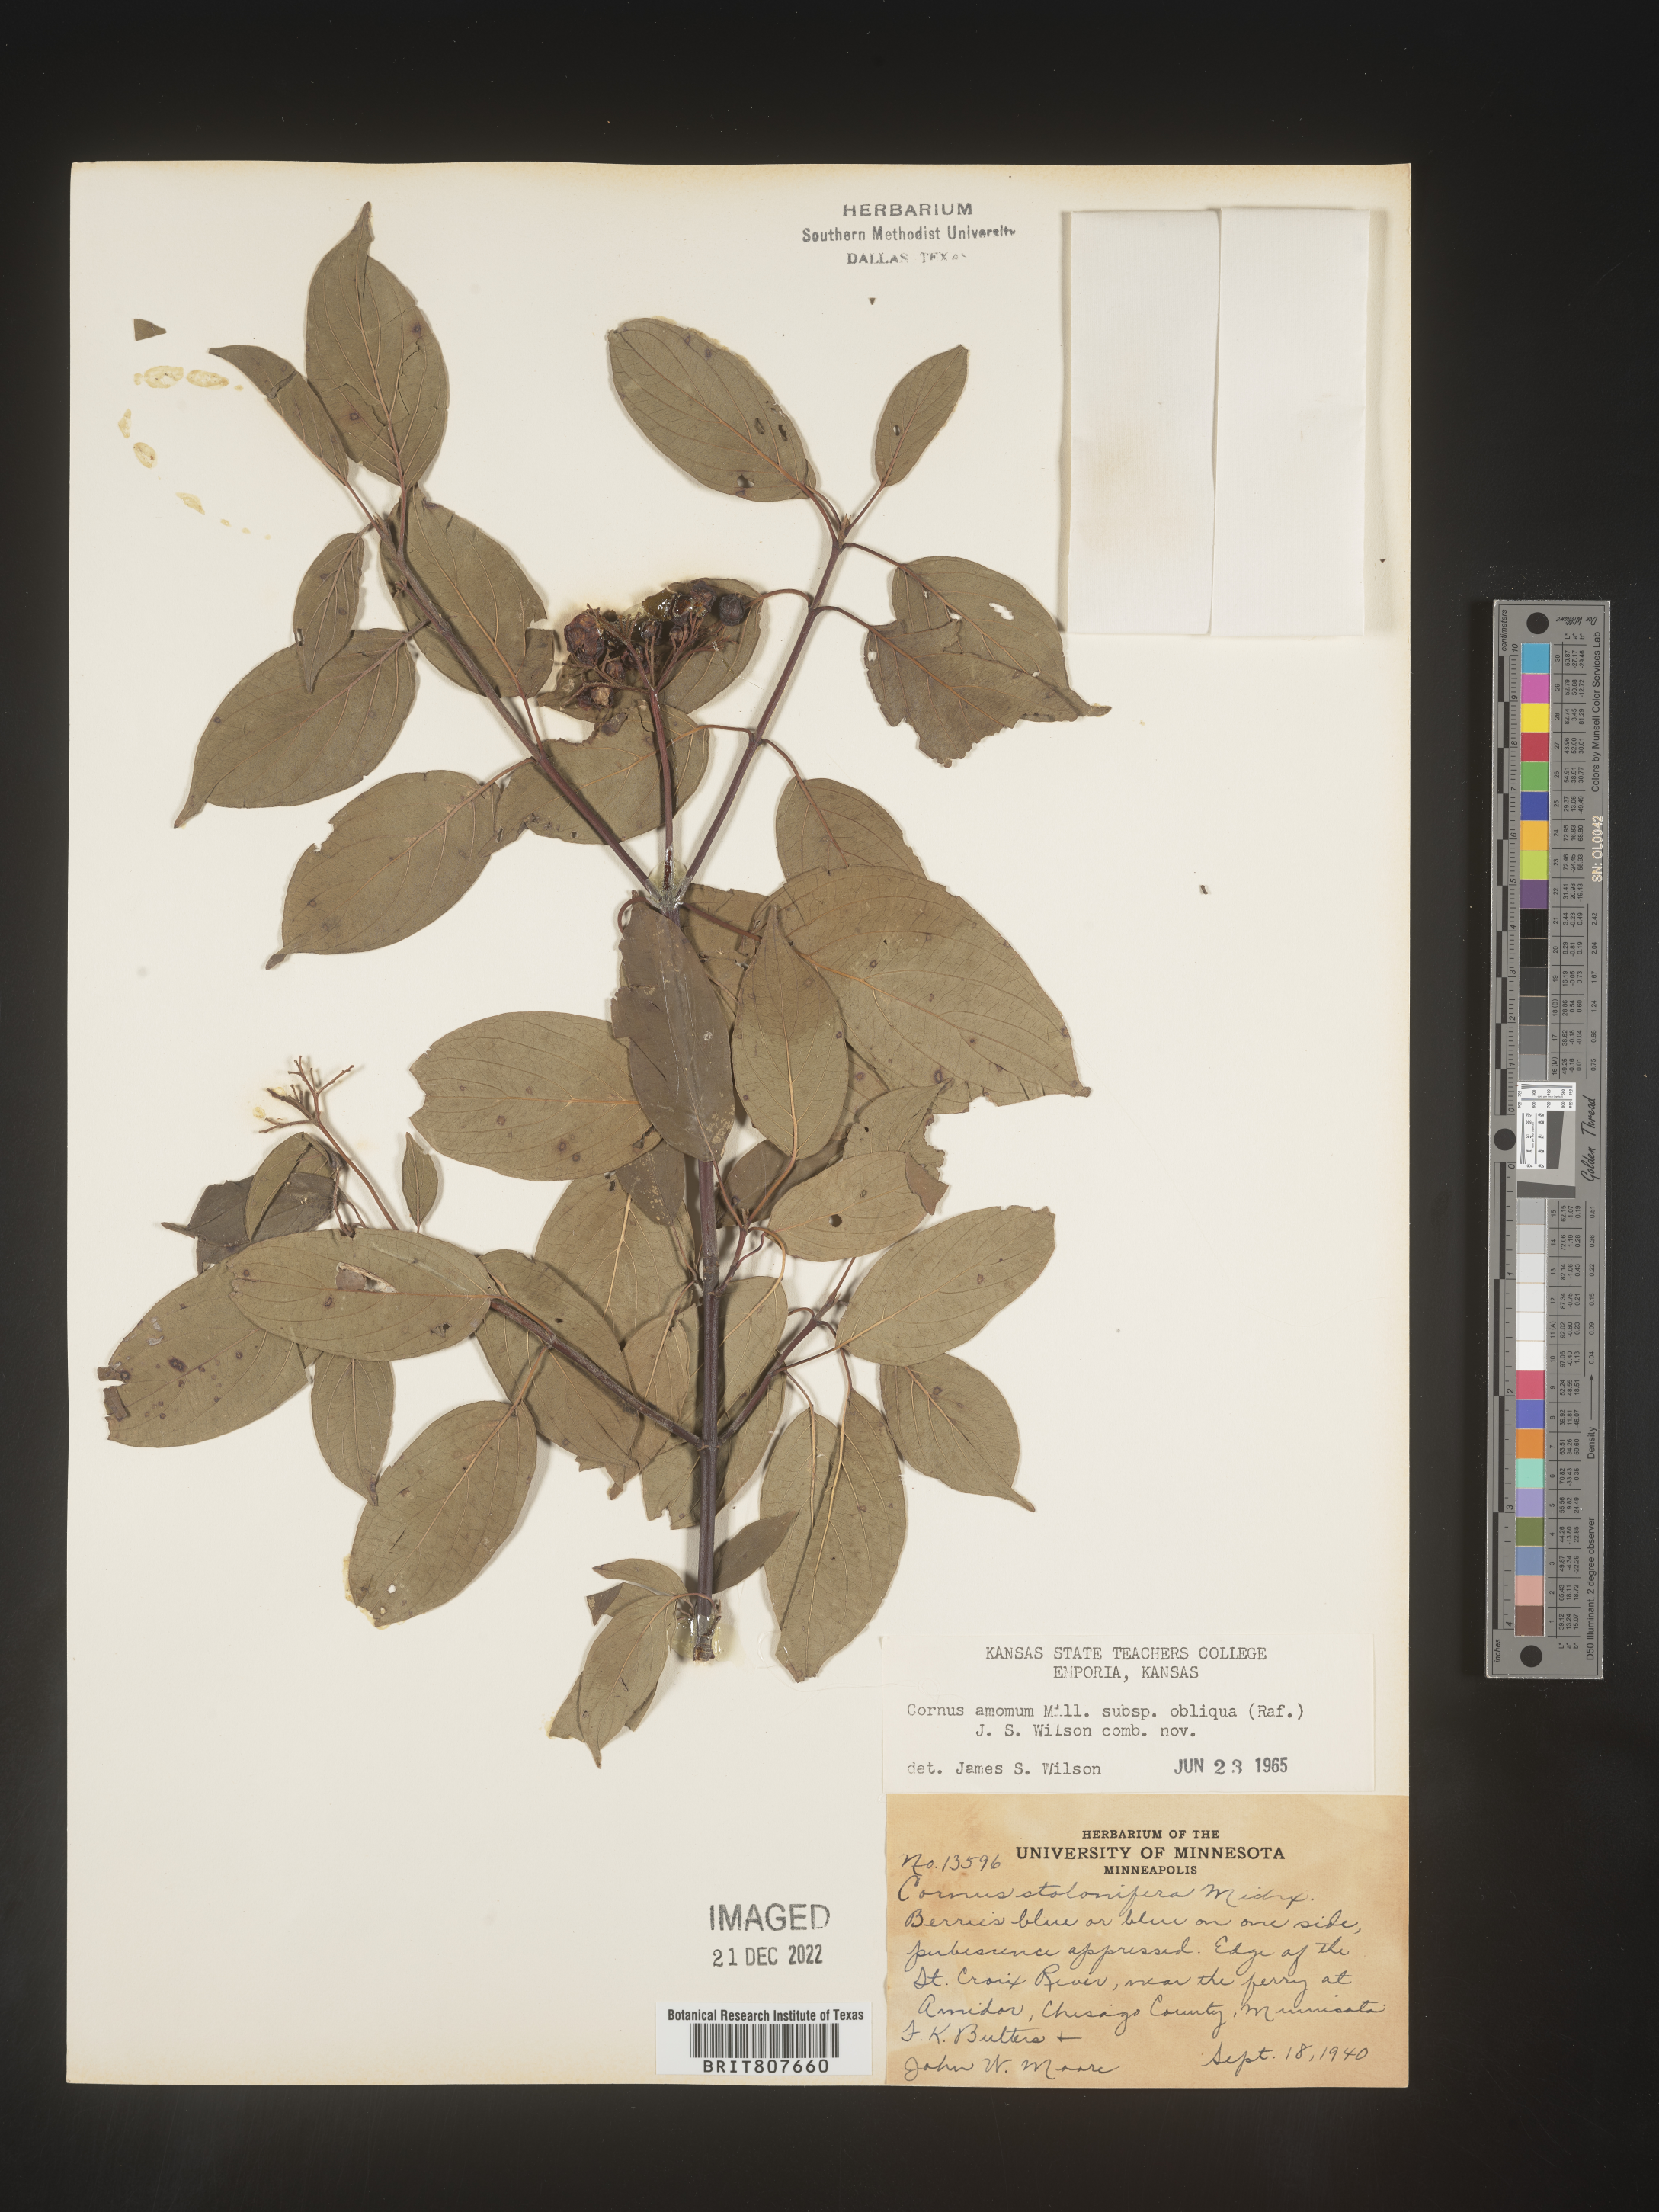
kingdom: Plantae
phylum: Tracheophyta
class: Magnoliopsida
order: Cornales
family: Cornaceae
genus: Cornus
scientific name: Cornus obliqua
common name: Pale dogwood
